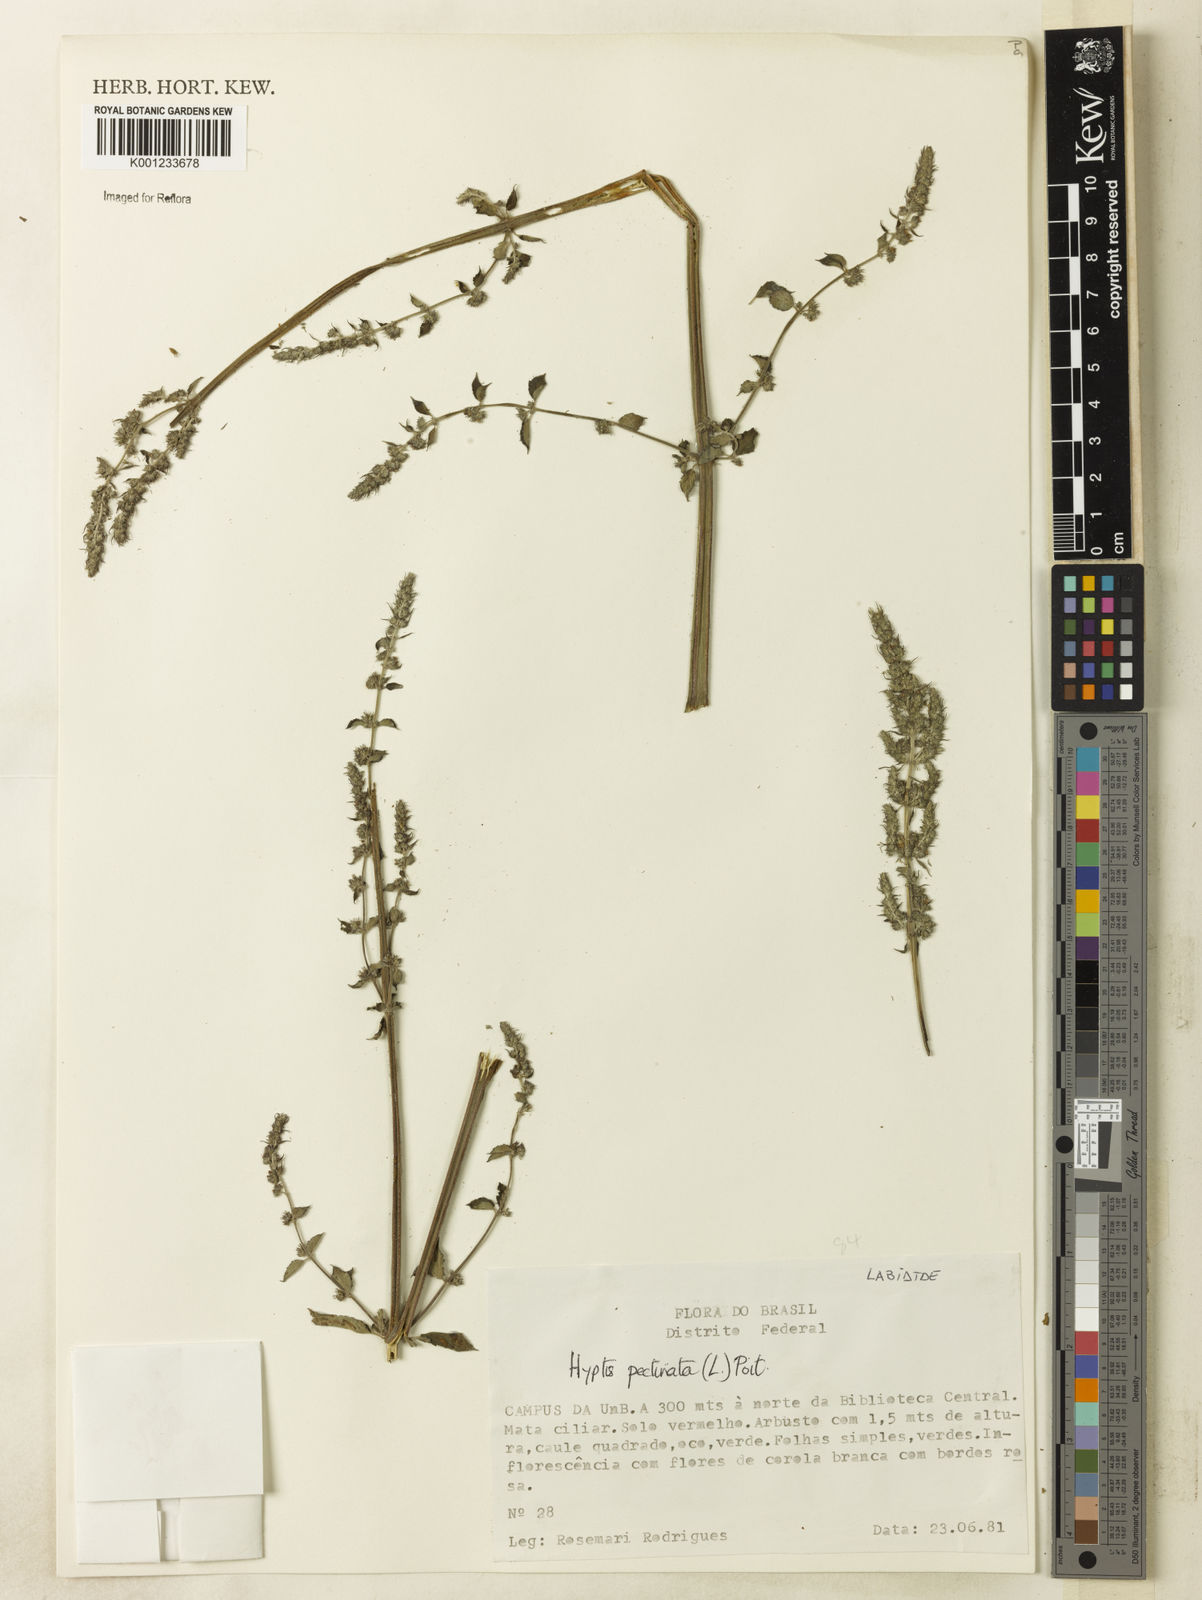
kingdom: Plantae
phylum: Tracheophyta
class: Magnoliopsida
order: Lamiales
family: Lamiaceae
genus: Mesosphaerum
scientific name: Mesosphaerum pectinatum
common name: Comb hyptis
